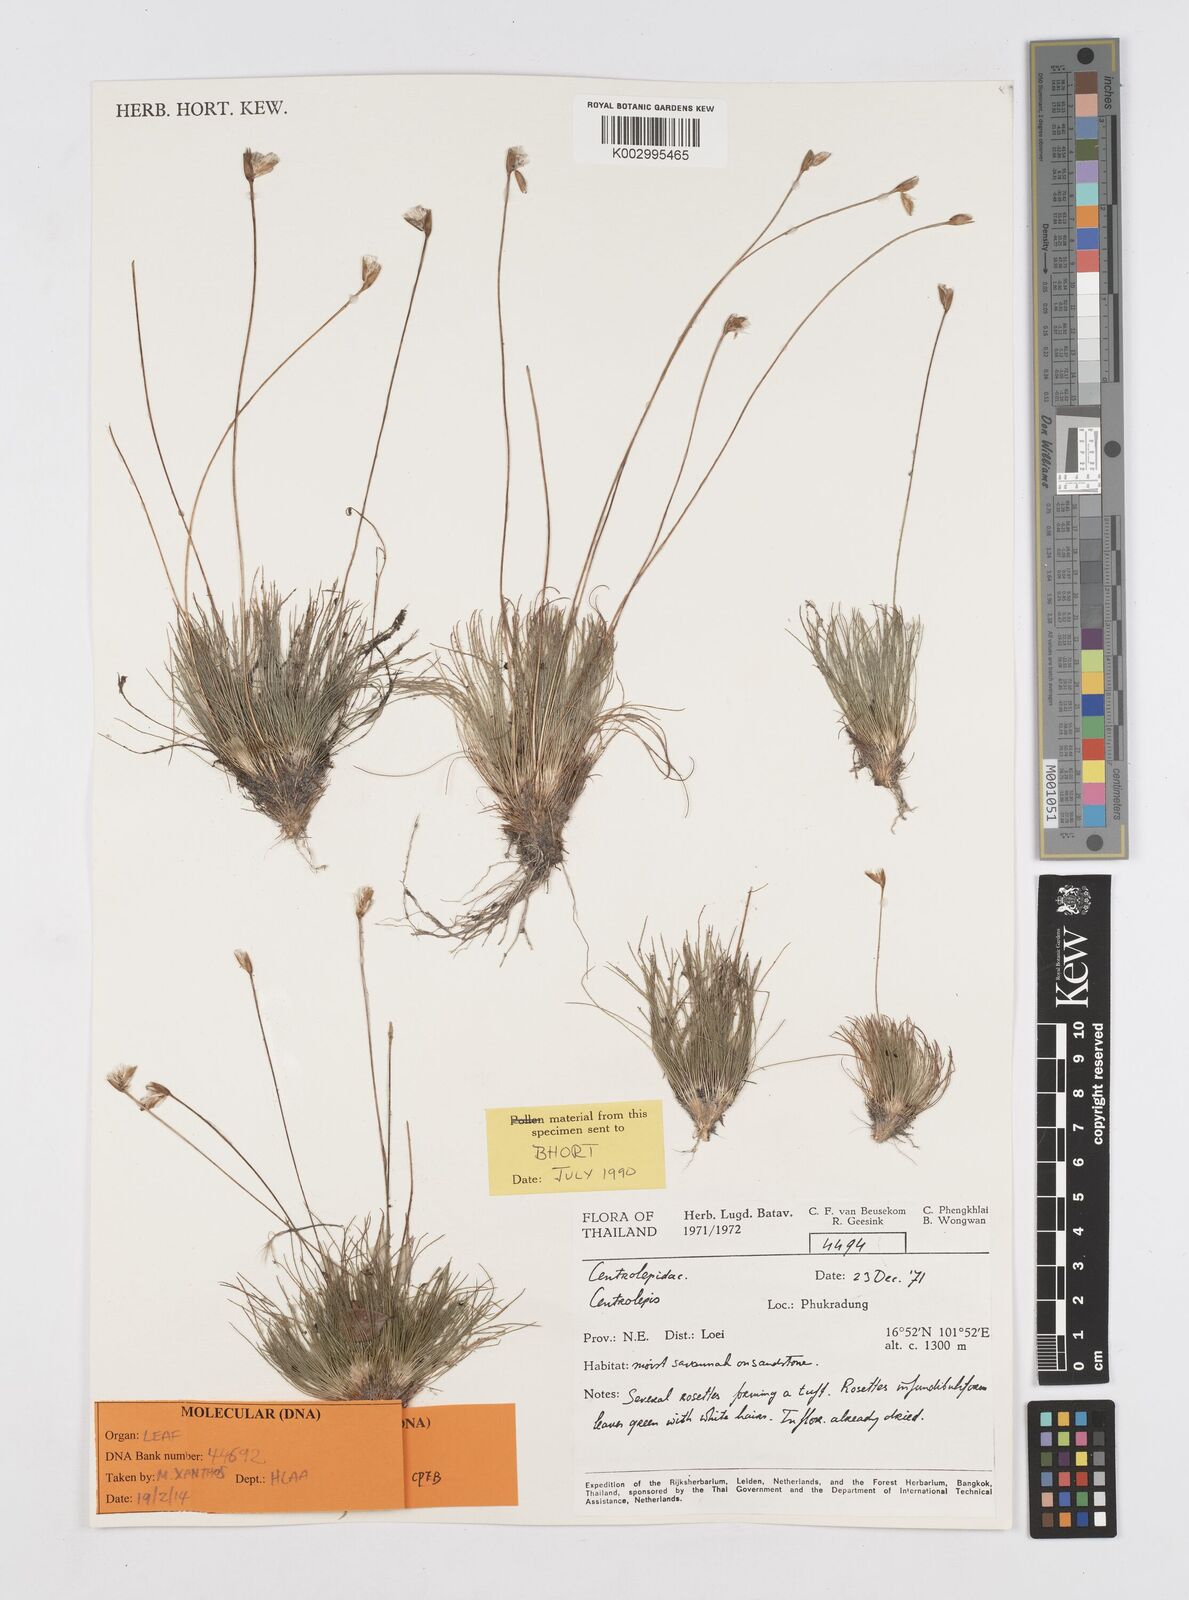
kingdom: Plantae
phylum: Tracheophyta
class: Liliopsida
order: Poales
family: Restionaceae
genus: Centrolepis
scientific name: Centrolepis cambodiana
